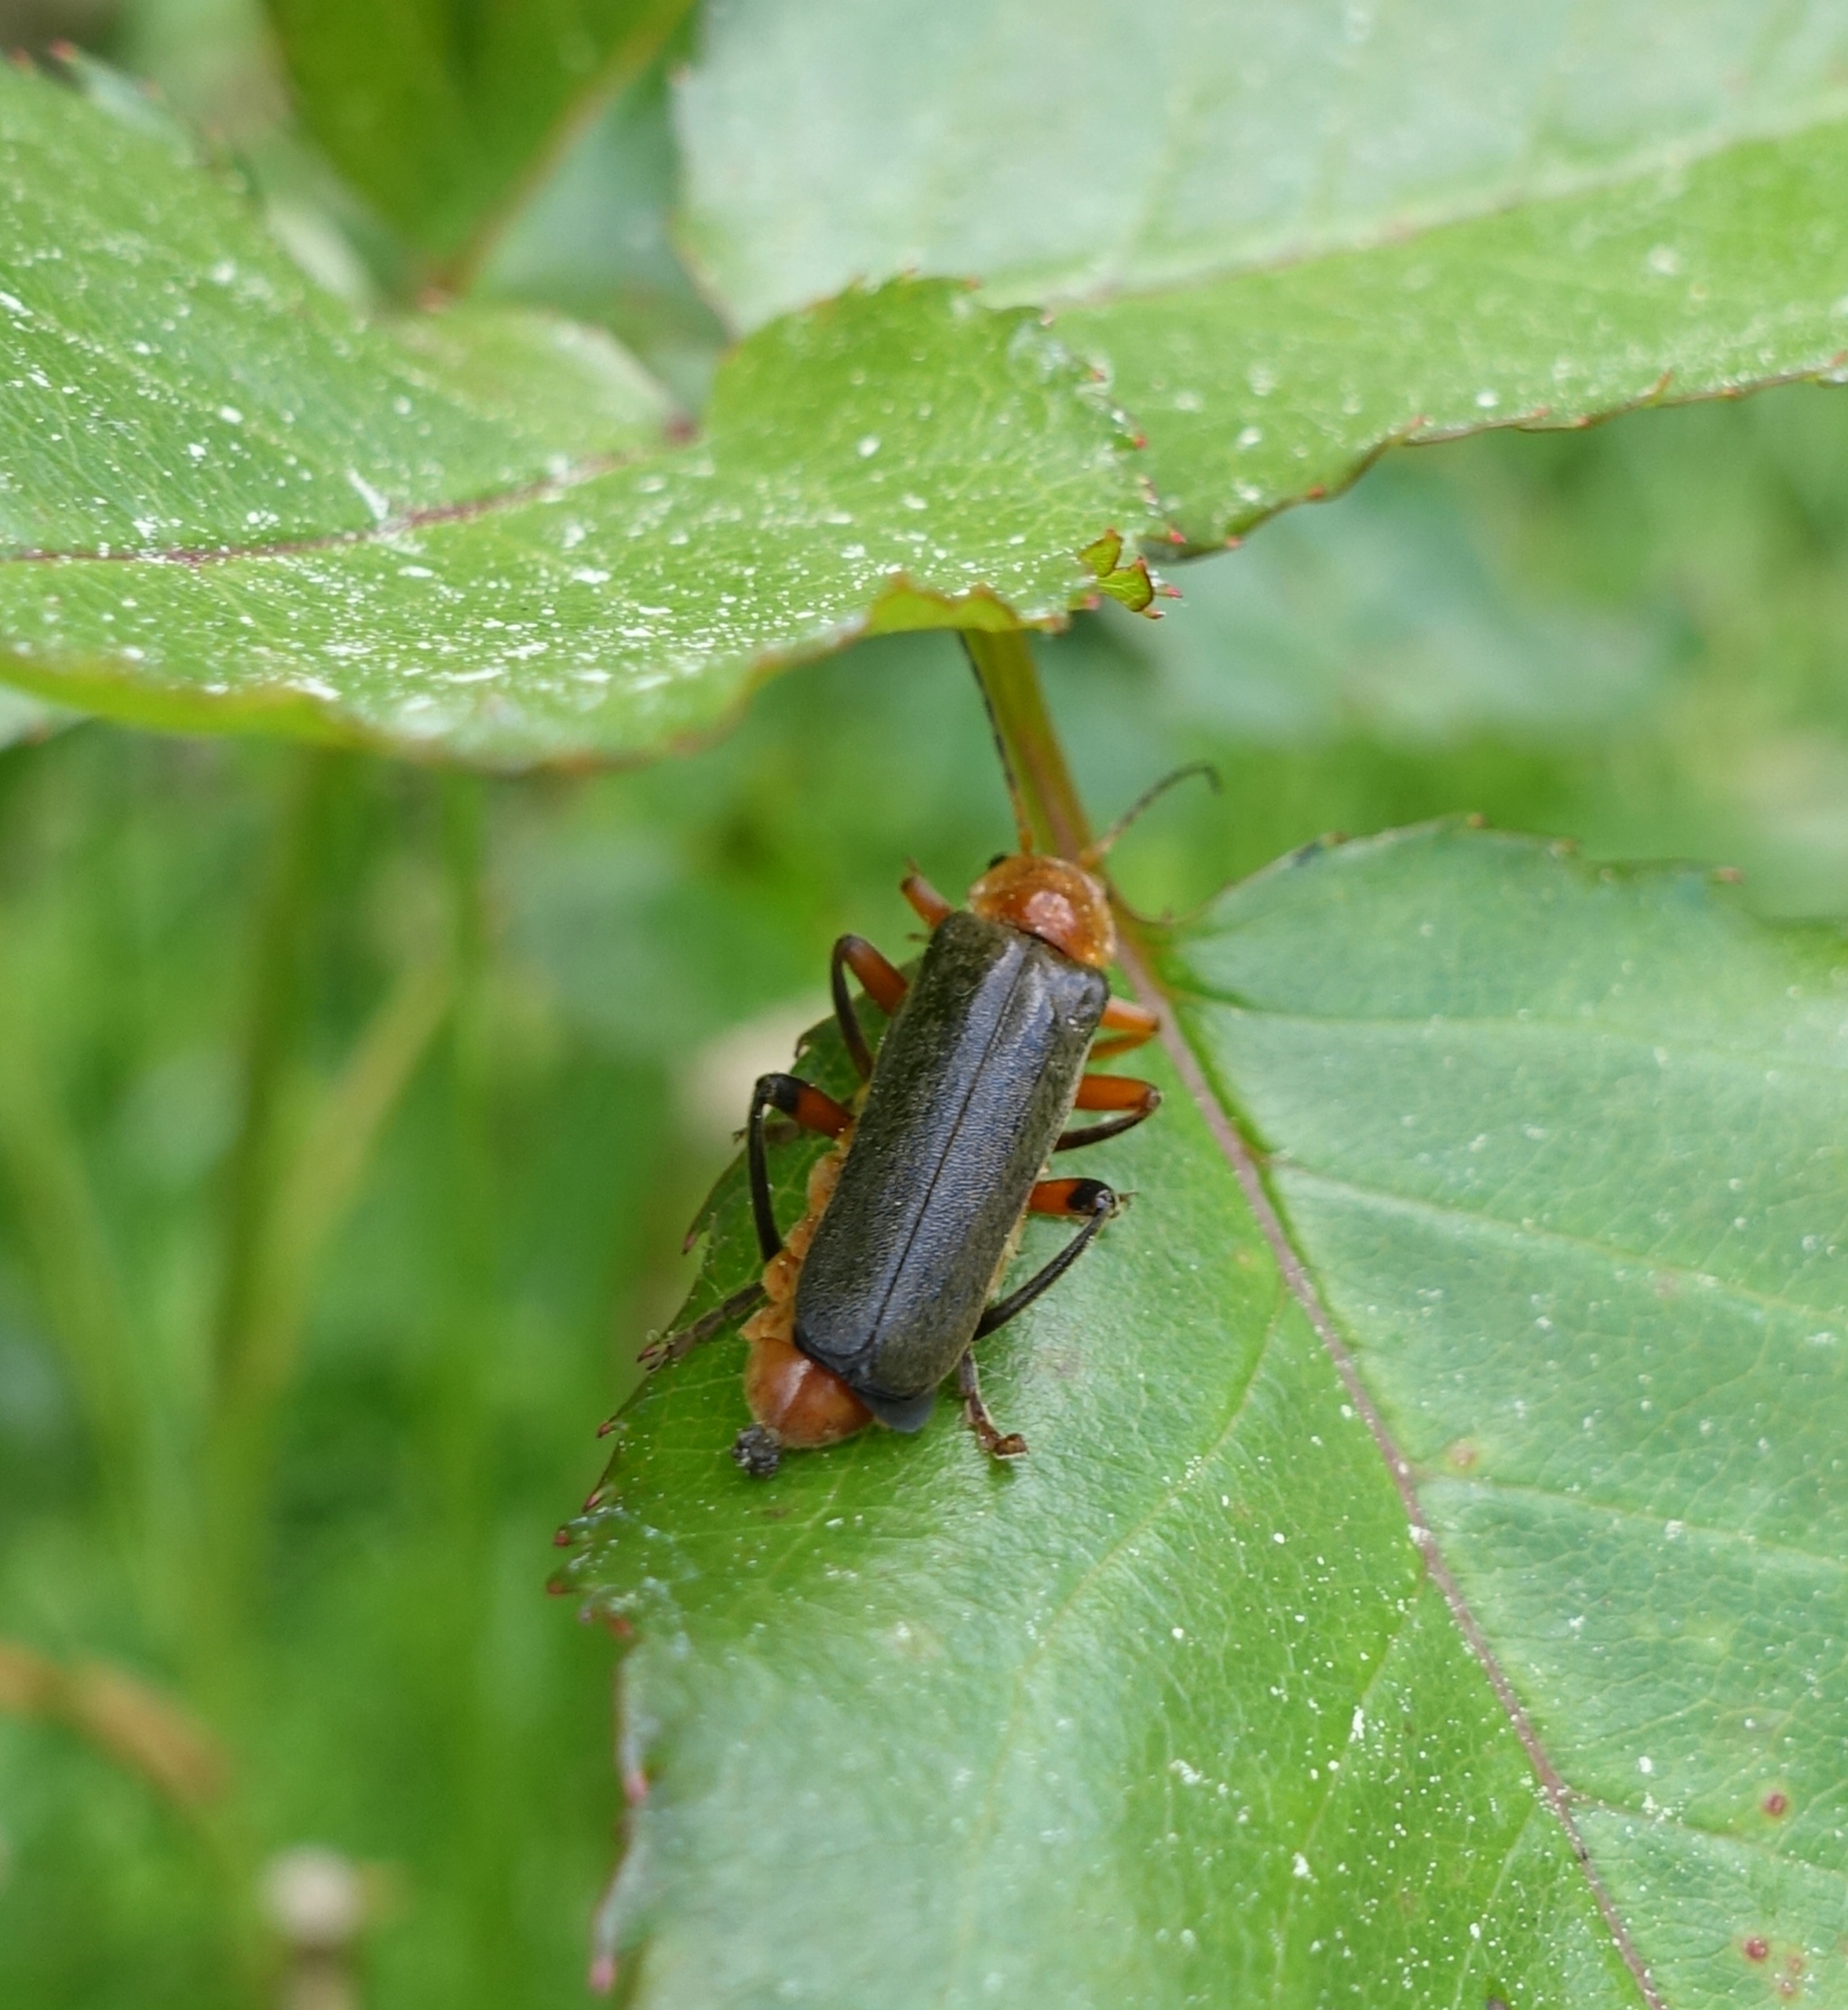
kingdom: Animalia
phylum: Arthropoda
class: Insecta
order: Coleoptera
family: Cantharidae
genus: Cantharis
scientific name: Cantharis livida
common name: Gul blødvinge
